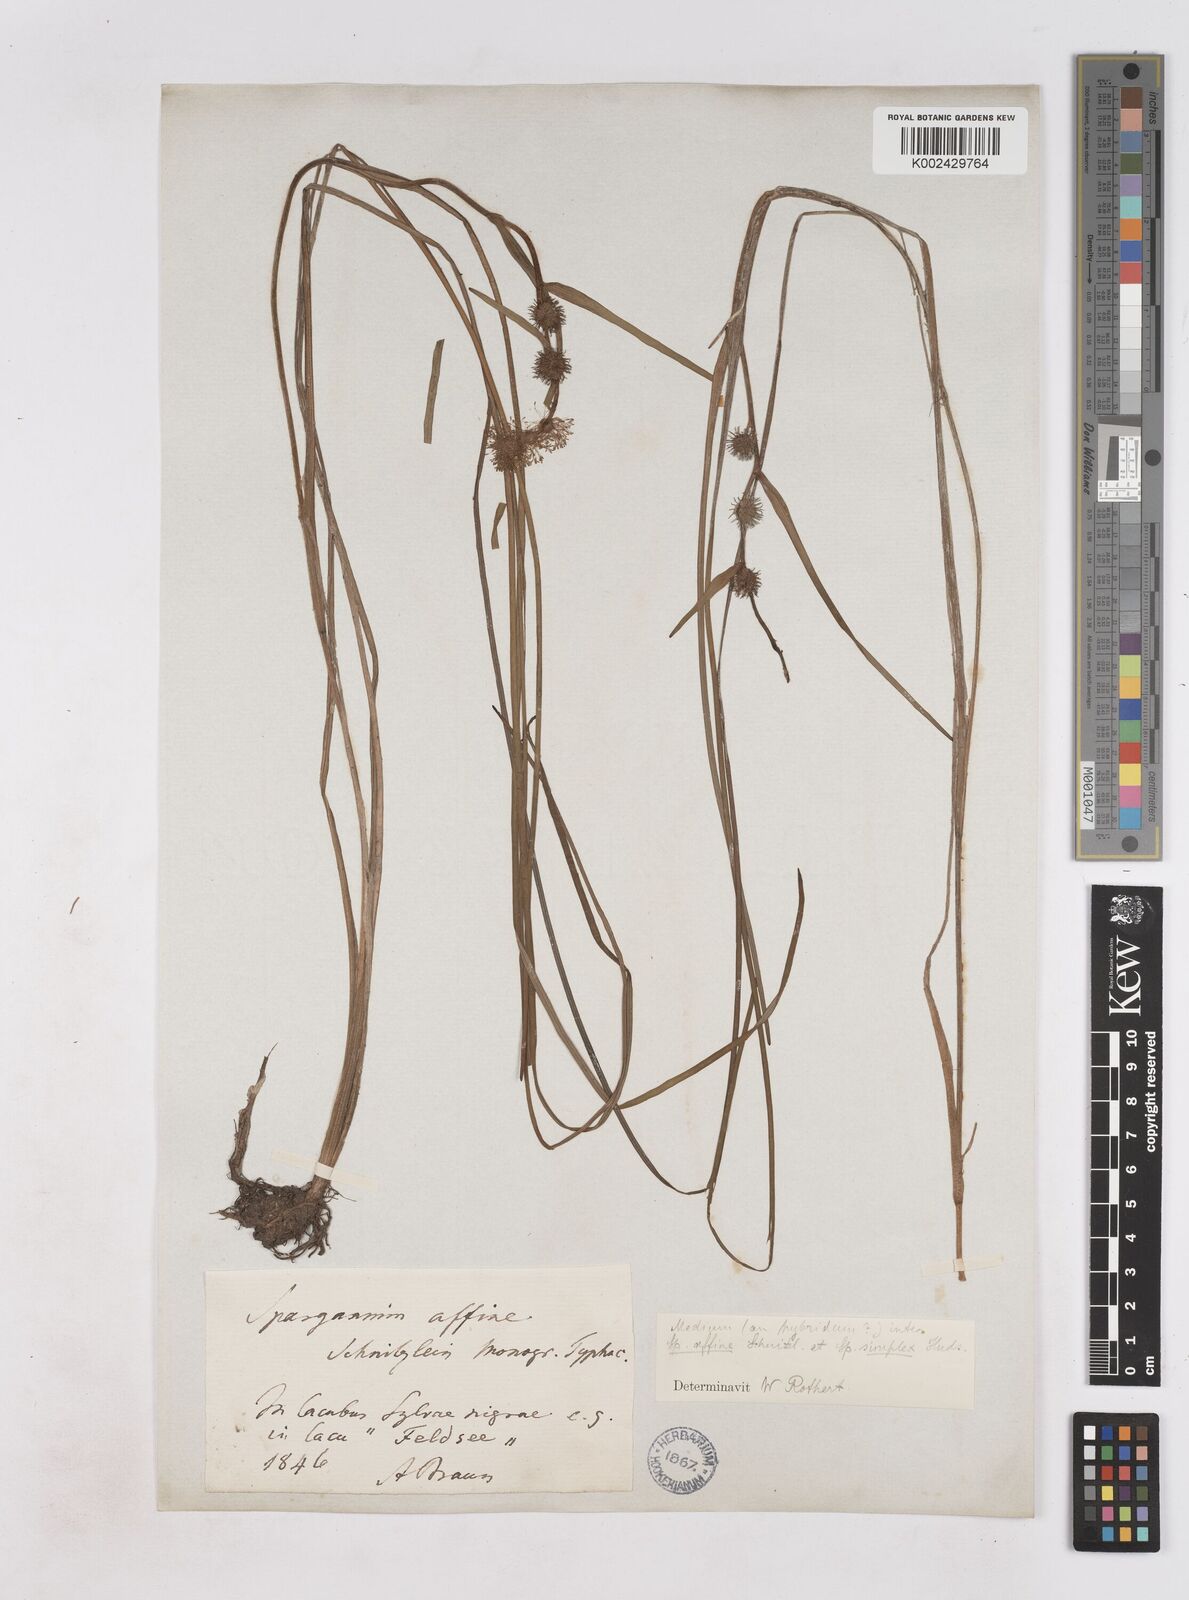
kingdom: Plantae
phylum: Tracheophyta
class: Liliopsida
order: Poales
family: Typhaceae
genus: Sparganium
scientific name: Sparganium angustifolium
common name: Floating bur-reed
